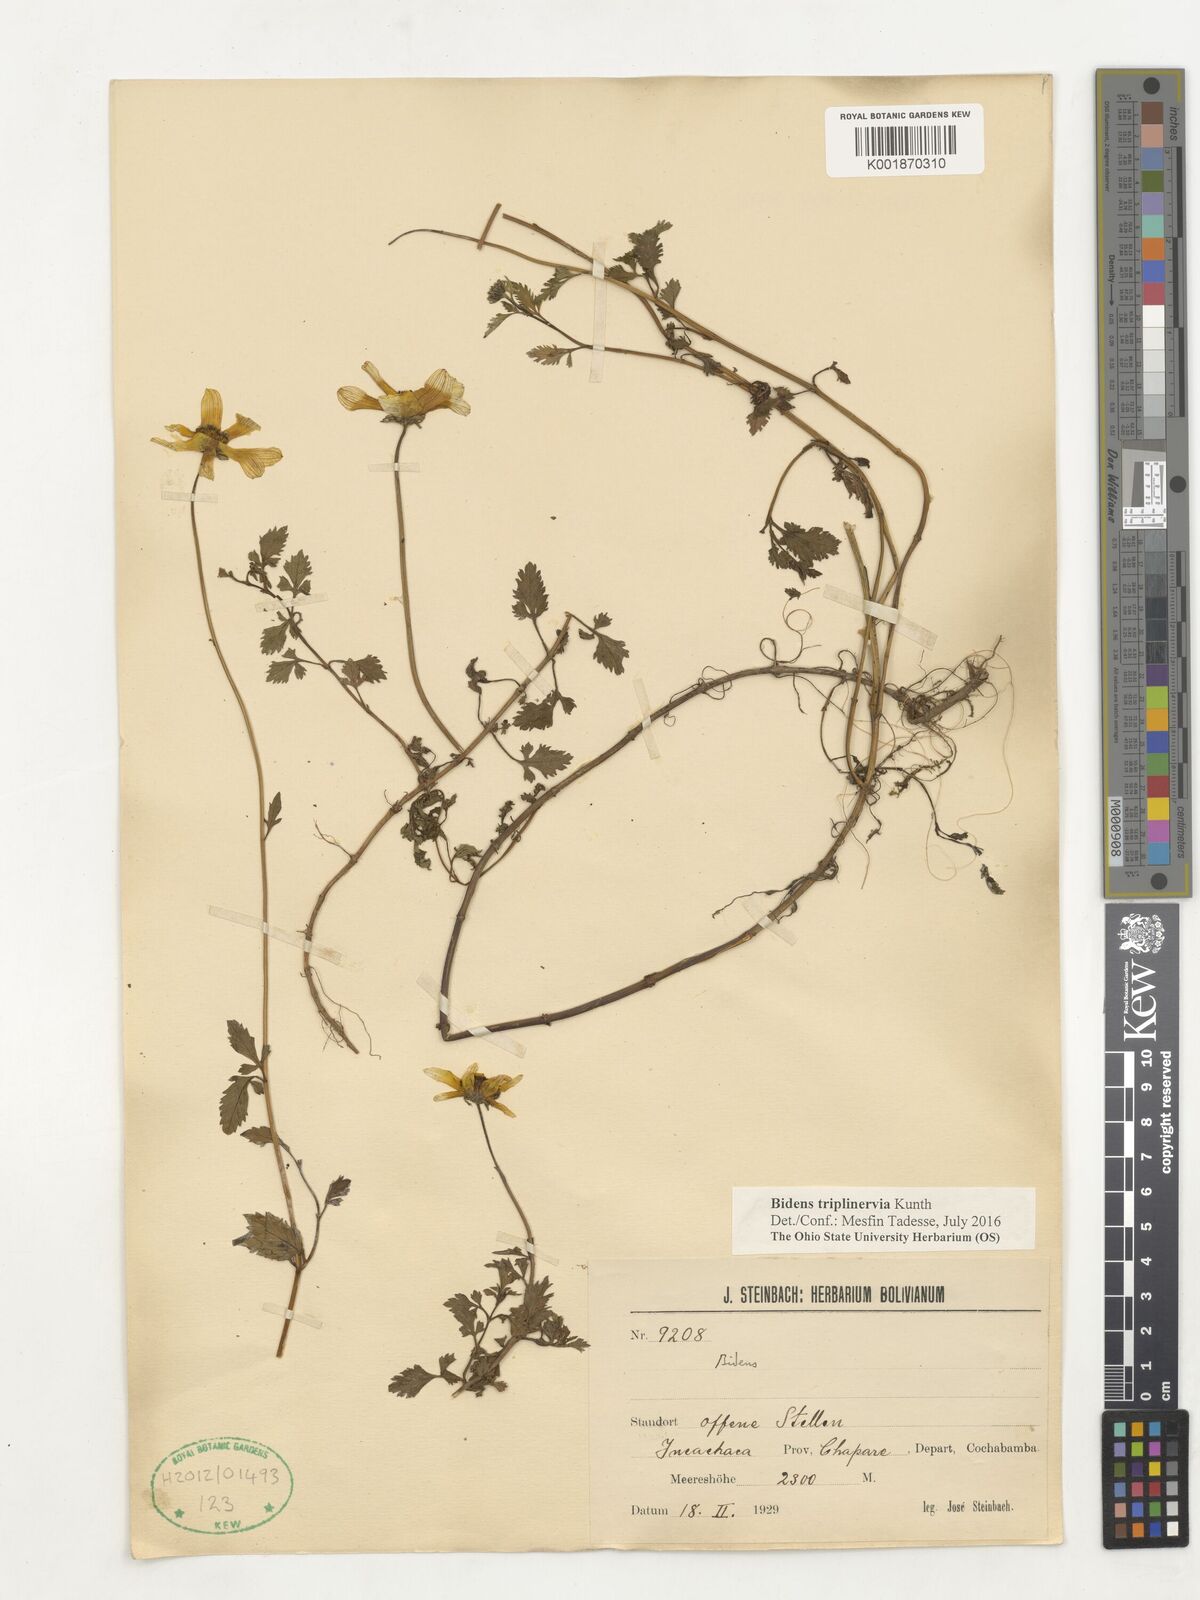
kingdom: Plantae
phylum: Tracheophyta
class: Magnoliopsida
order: Asterales
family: Asteraceae
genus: Bidens
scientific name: Bidens triplinervia
